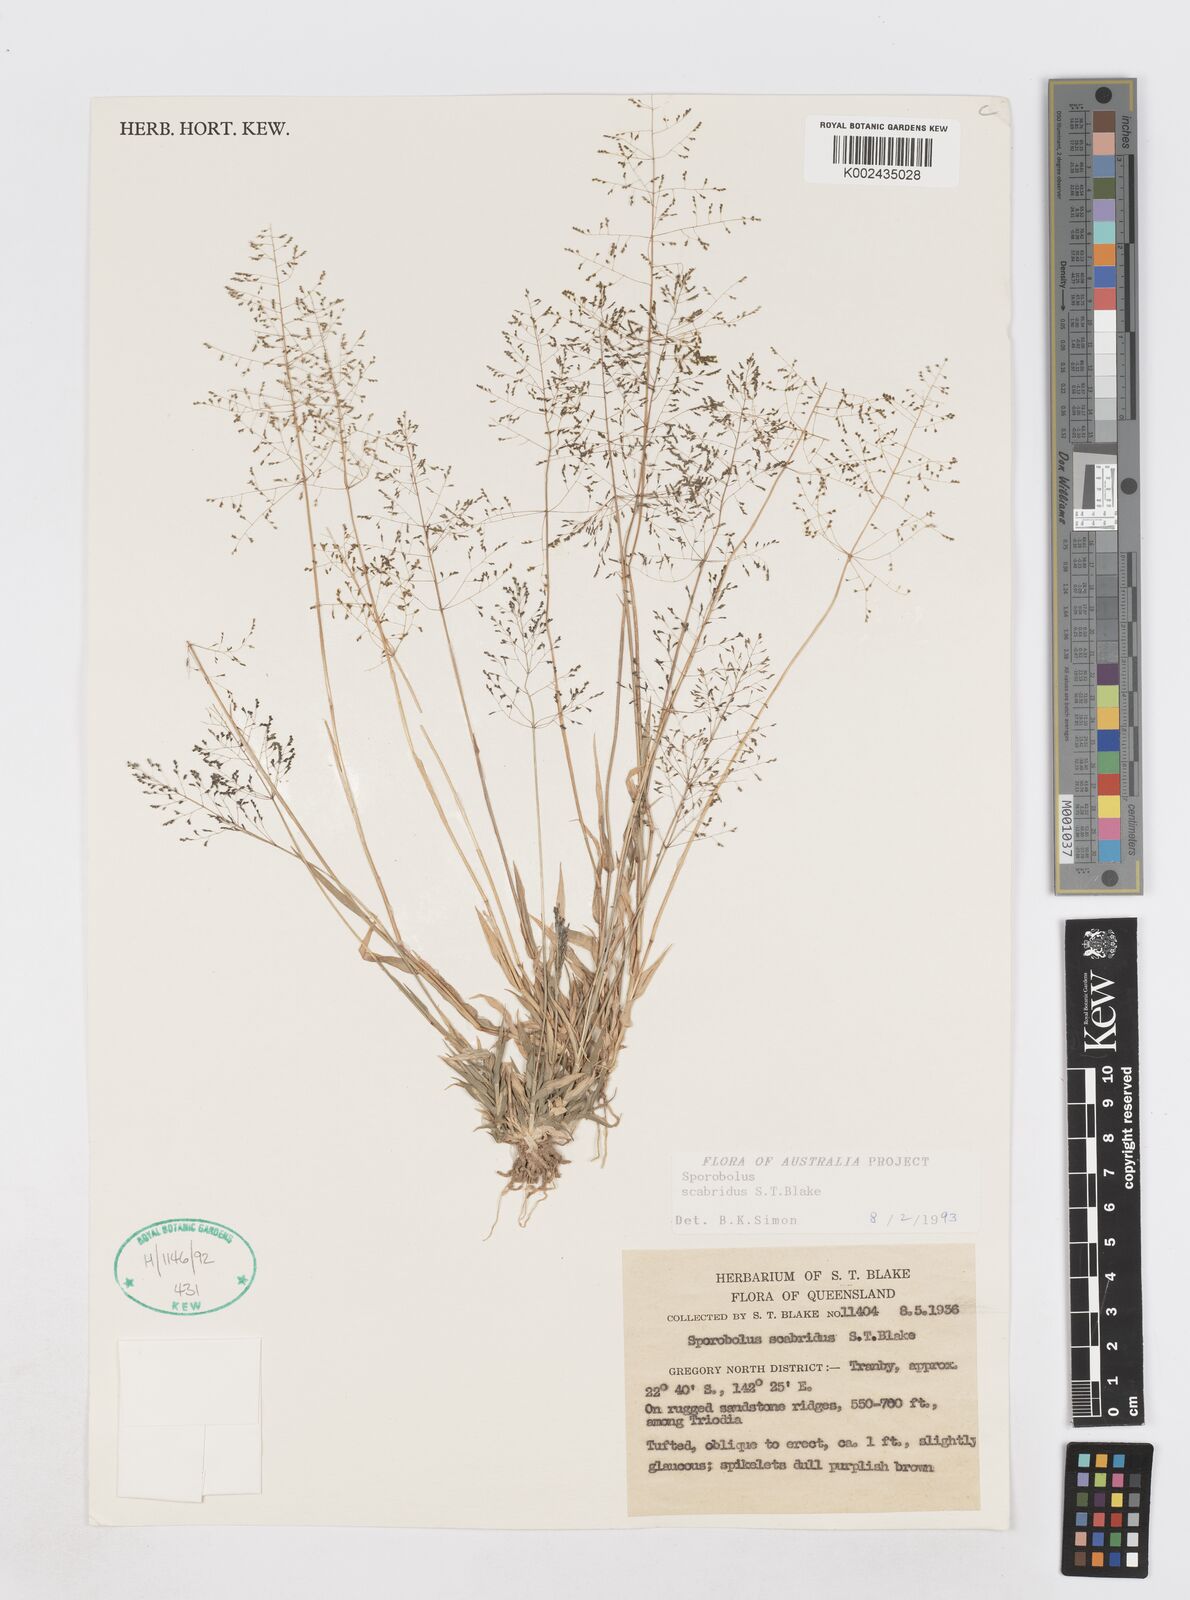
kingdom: Plantae
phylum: Tracheophyta
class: Liliopsida
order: Poales
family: Poaceae
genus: Sporobolus
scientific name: Sporobolus scabridus
